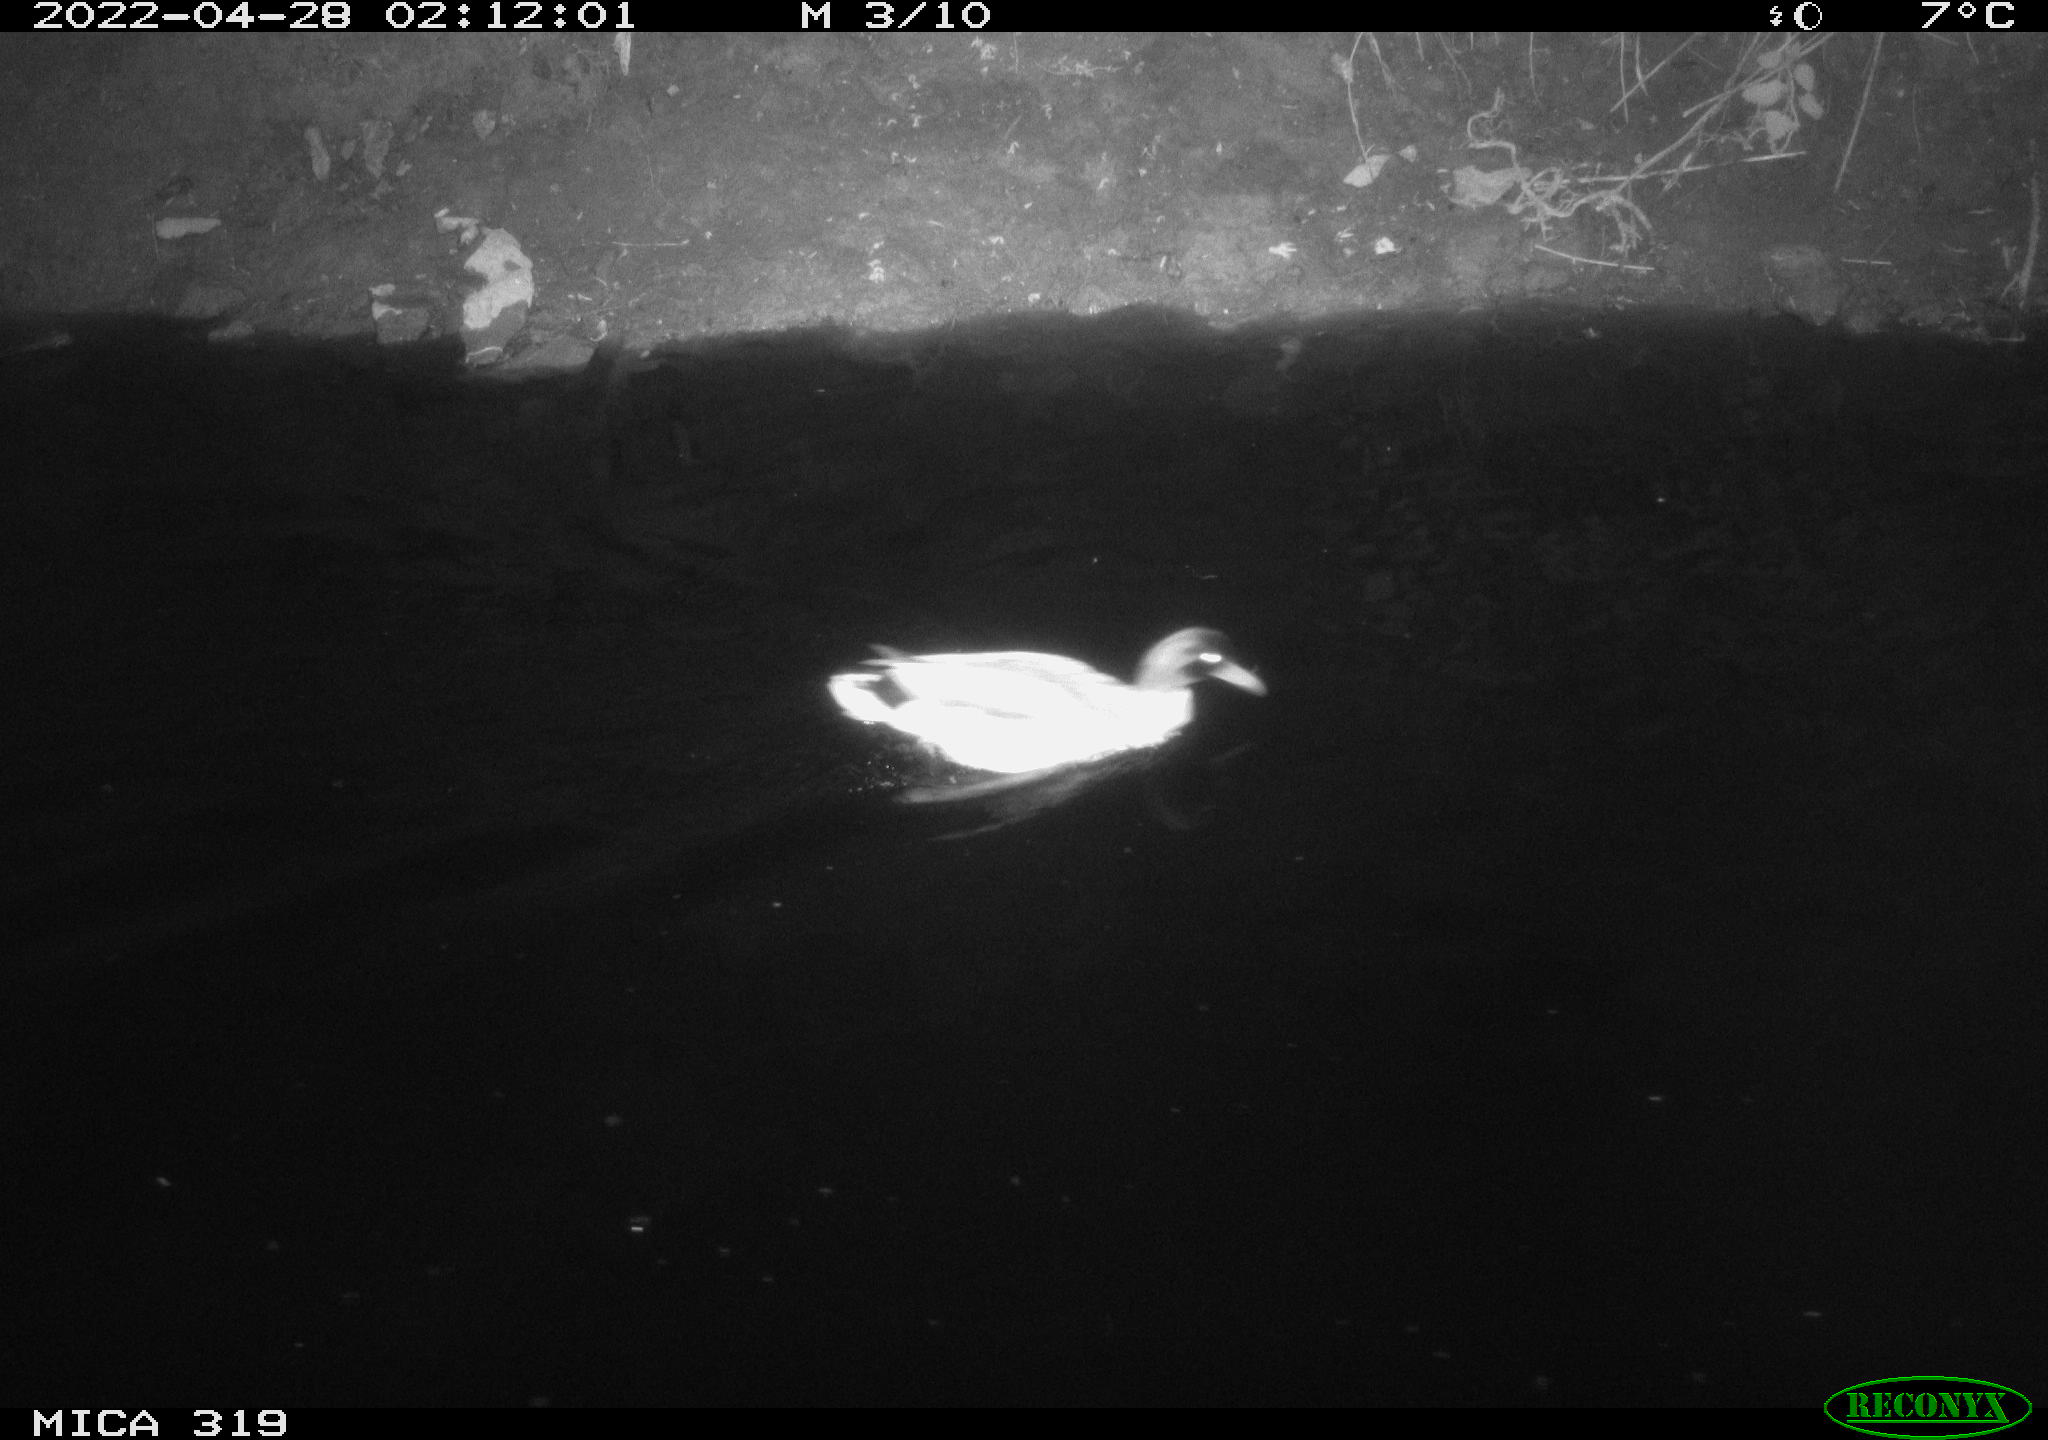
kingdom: Animalia
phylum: Chordata
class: Aves
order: Anseriformes
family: Anatidae
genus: Anas
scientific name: Anas platyrhynchos
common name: Mallard
